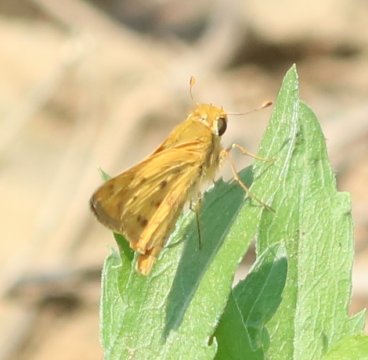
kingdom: Animalia
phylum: Arthropoda
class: Insecta
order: Lepidoptera
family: Hesperiidae
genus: Hylephila
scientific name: Hylephila phyleus
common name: Fiery Skipper
